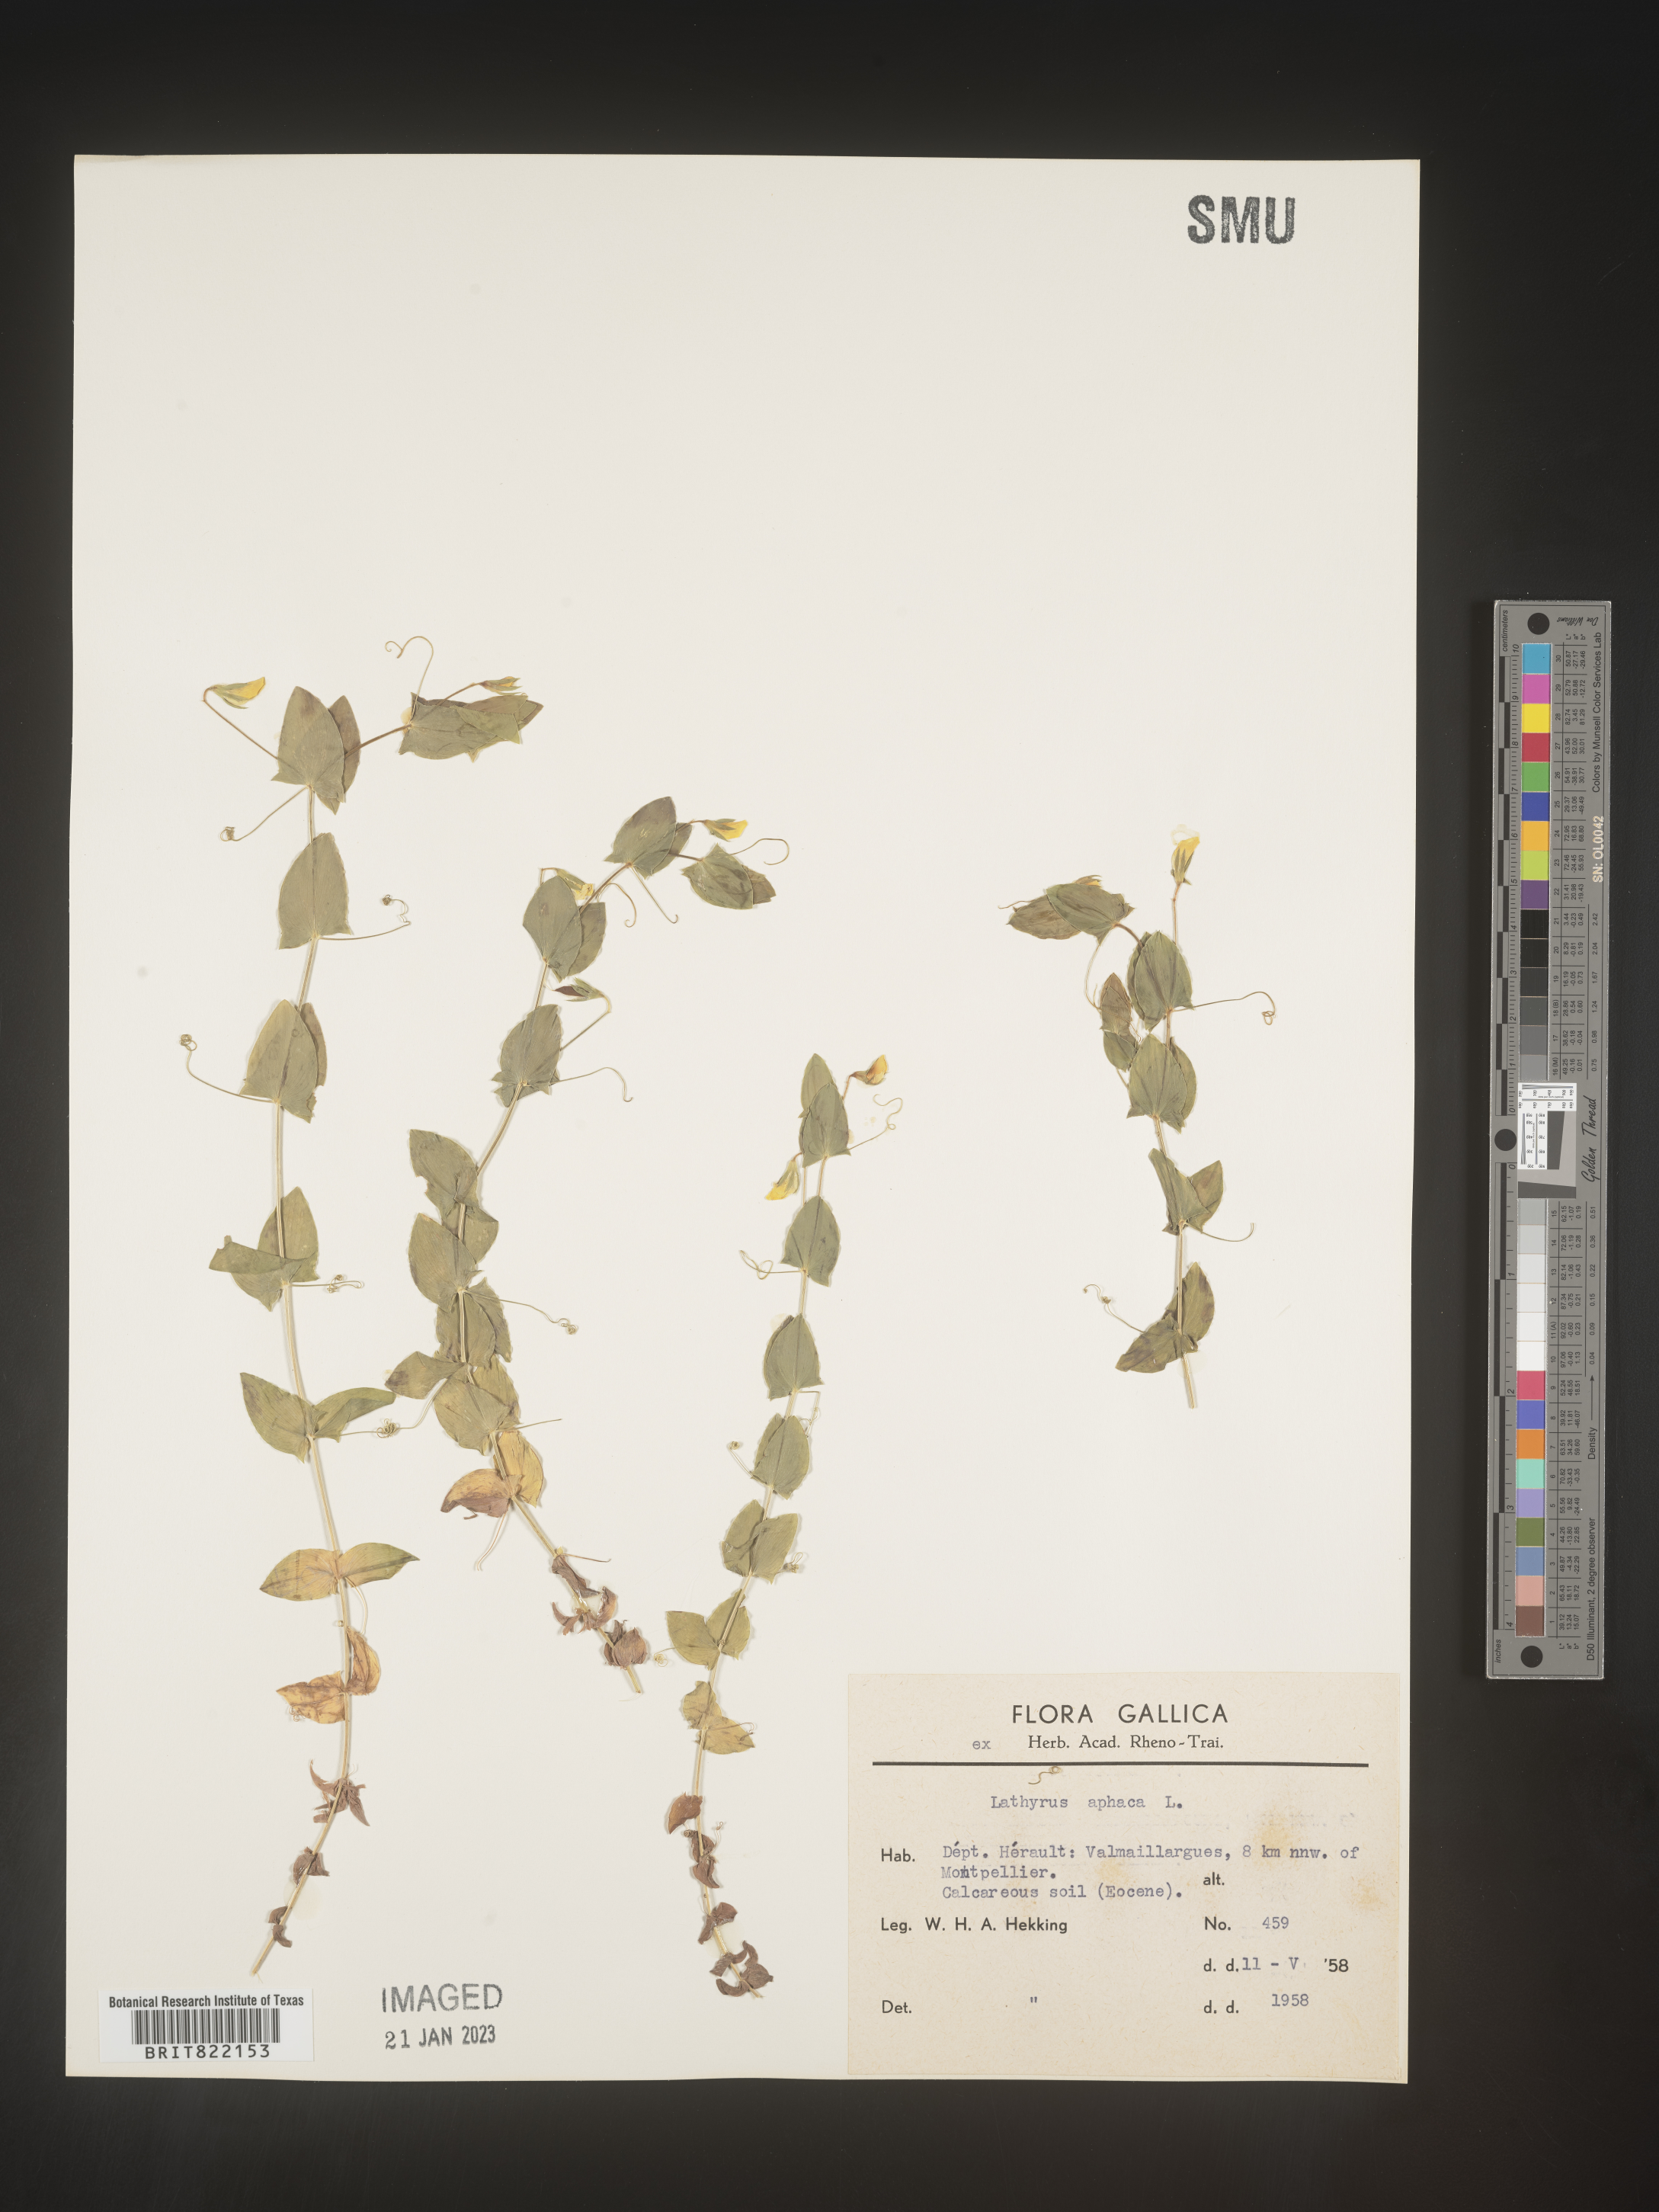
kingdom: Plantae
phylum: Tracheophyta
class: Magnoliopsida
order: Fabales
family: Fabaceae
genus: Lathyrus
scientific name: Lathyrus
